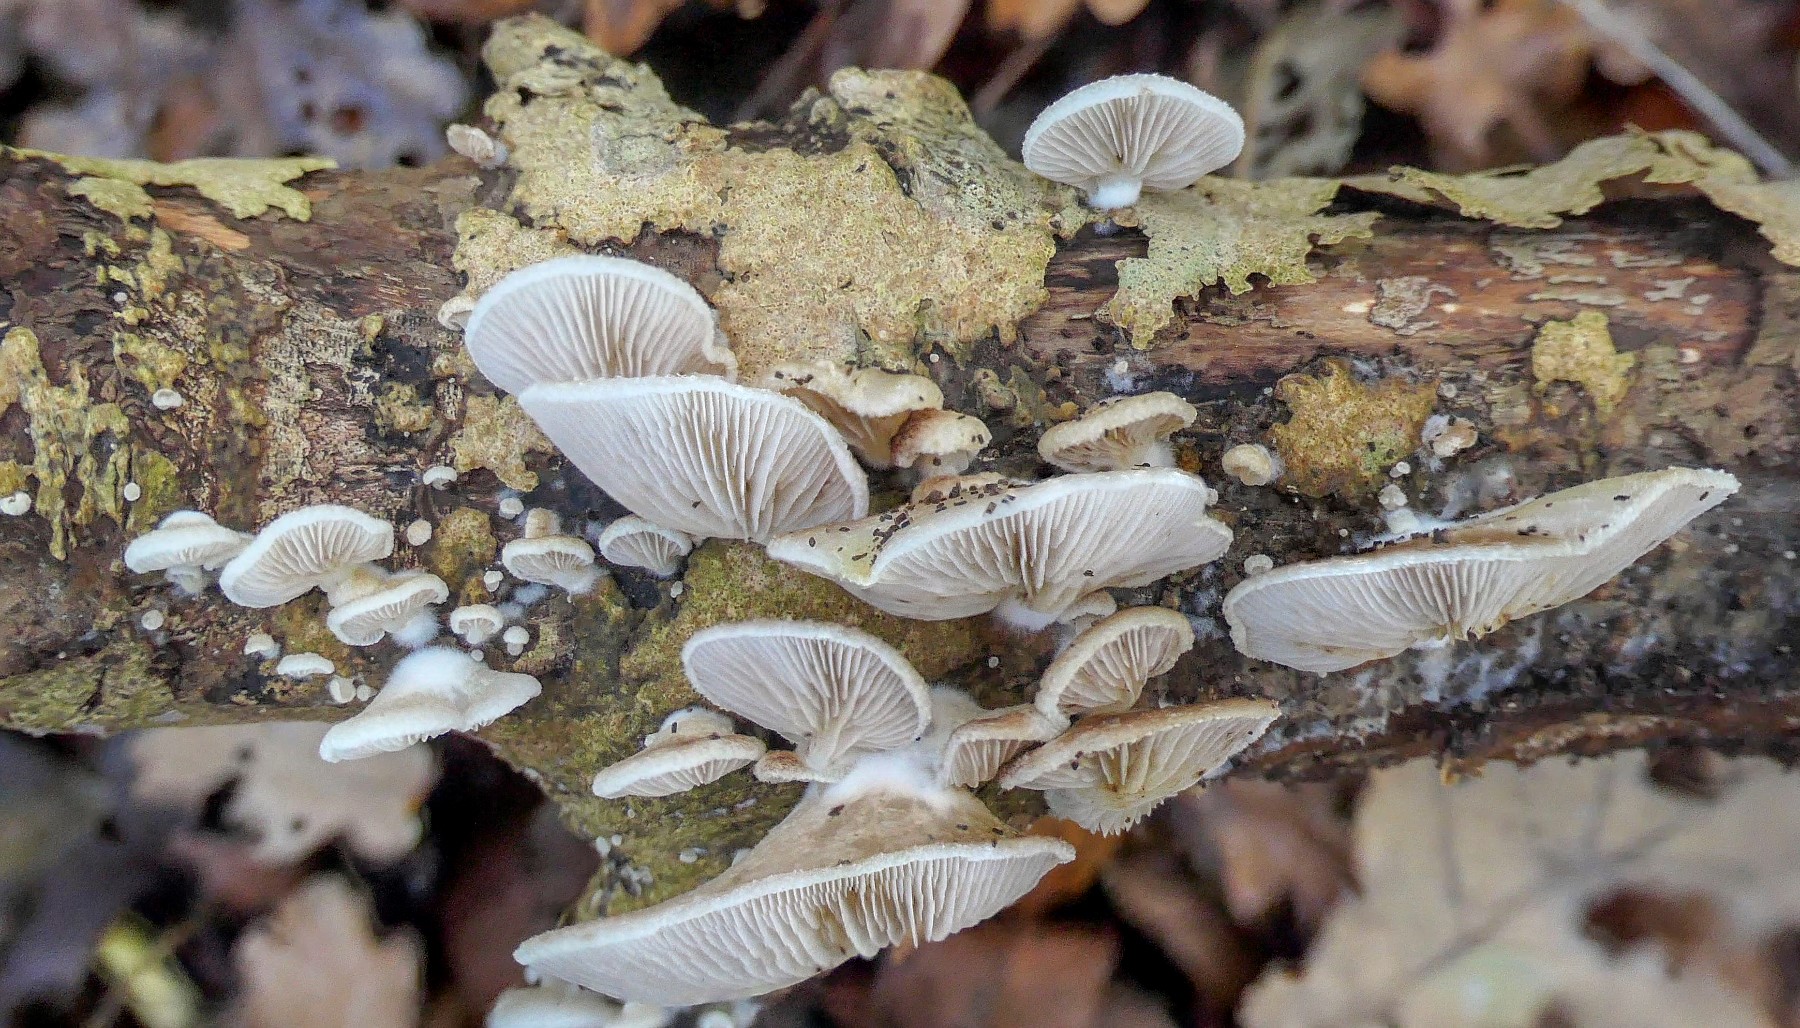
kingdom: Fungi
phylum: Basidiomycota
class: Agaricomycetes
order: Agaricales
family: Crepidotaceae
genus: Crepidotus
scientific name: Crepidotus mollis
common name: blød muslingesvamp
